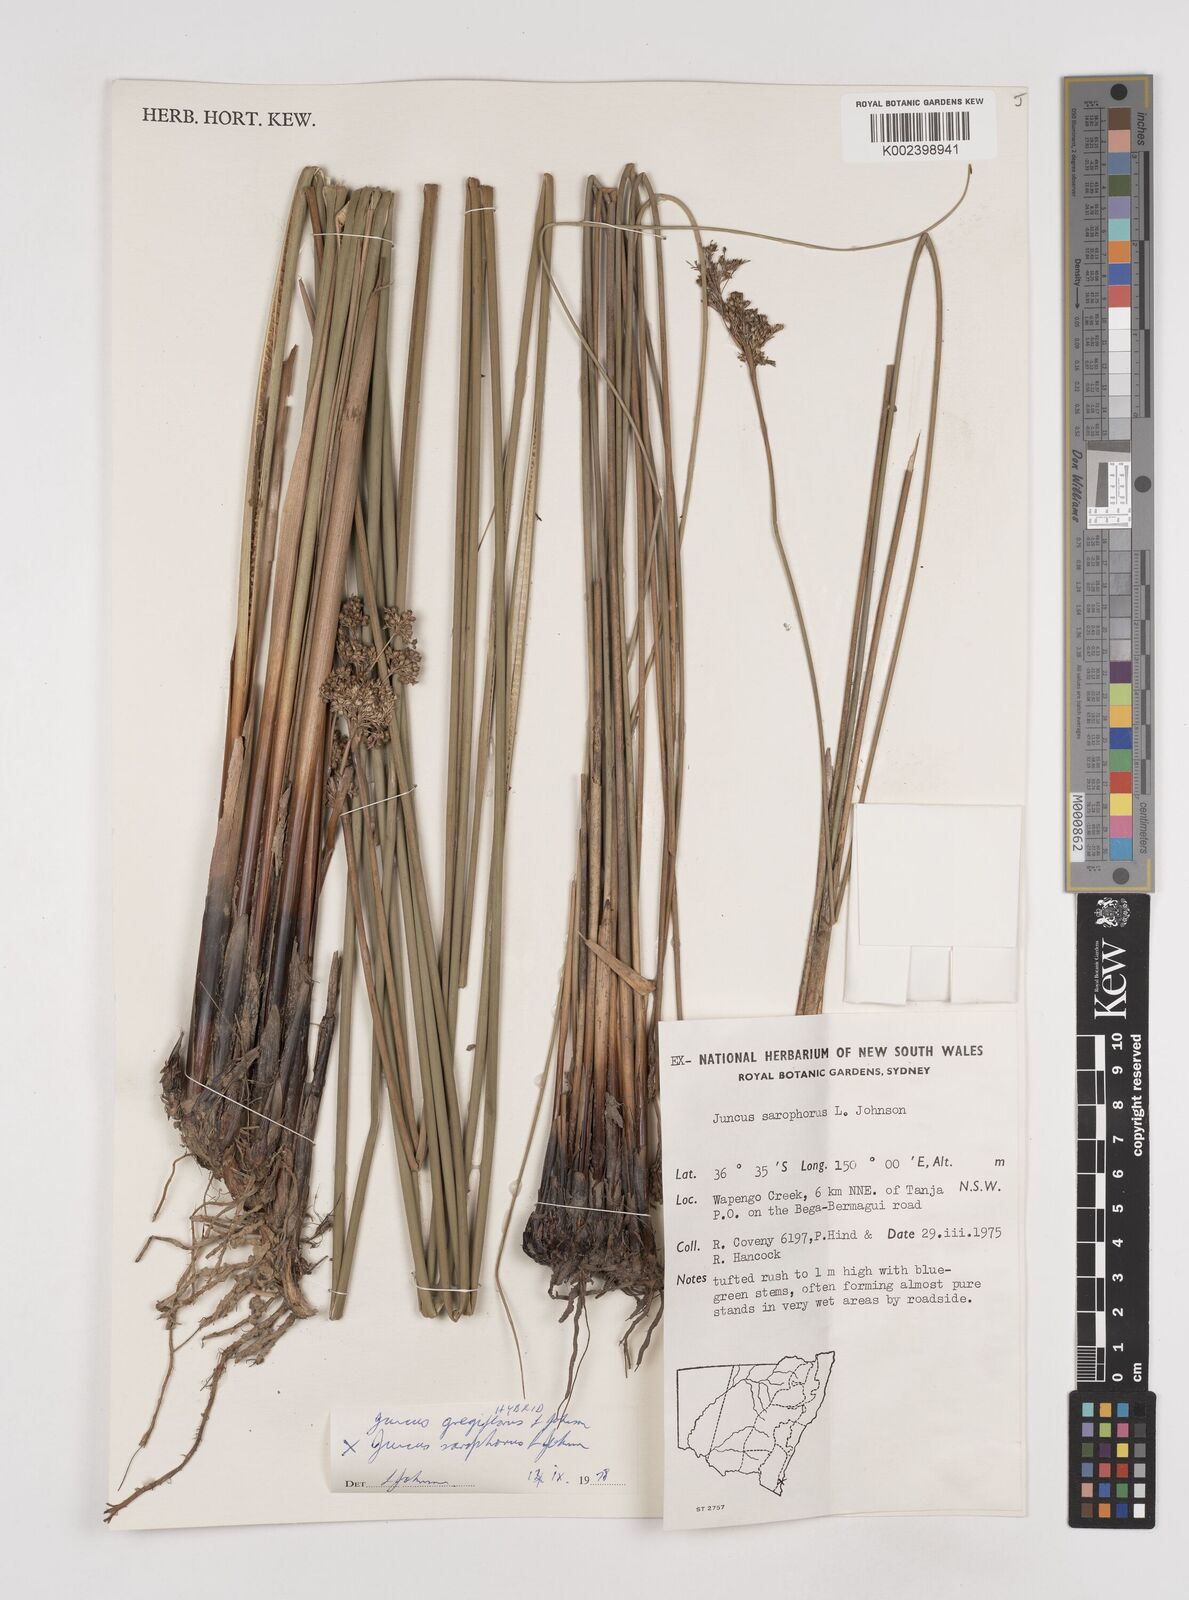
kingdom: Plantae
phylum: Tracheophyta
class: Liliopsida
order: Poales
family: Juncaceae
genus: Juncus
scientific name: Juncus gregiflorus
